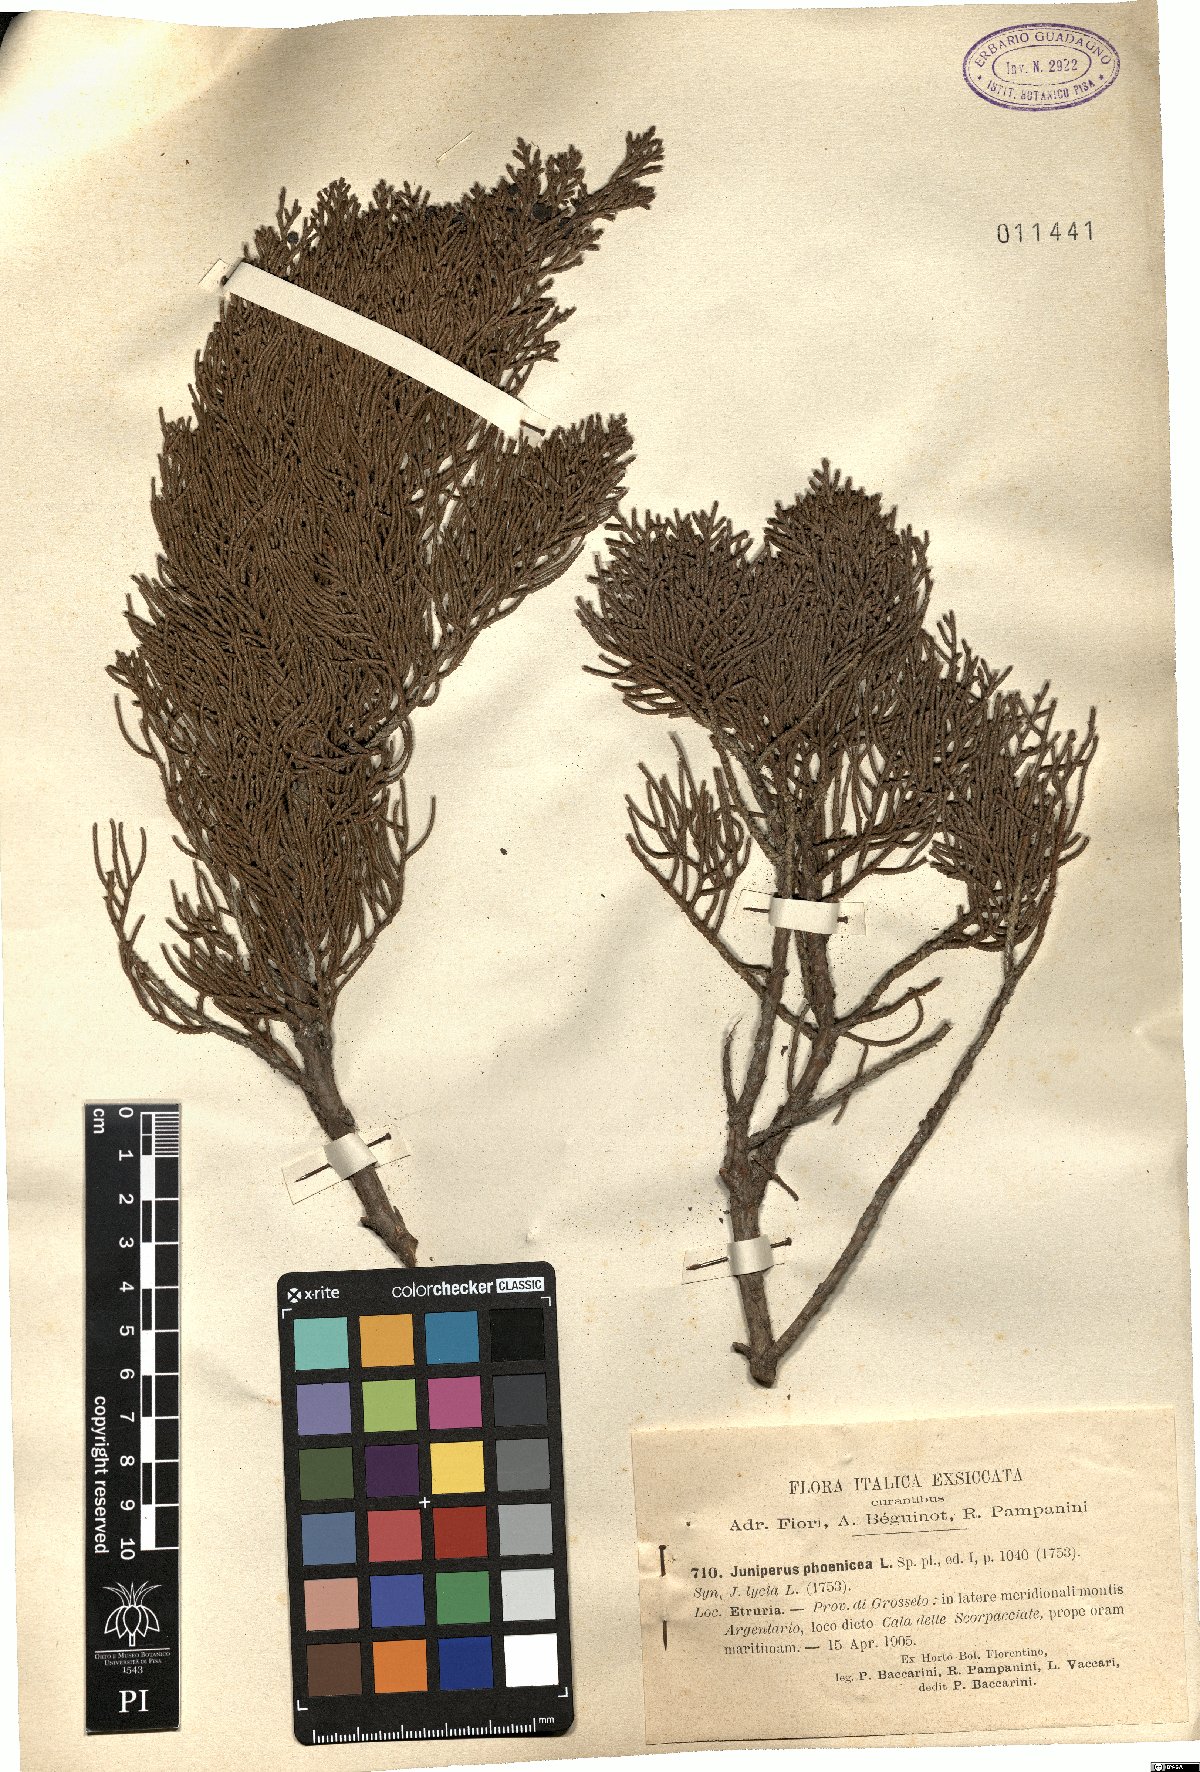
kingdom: Plantae
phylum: Tracheophyta
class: Pinopsida
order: Pinales
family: Cupressaceae
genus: Juniperus
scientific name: Juniperus phoenicea
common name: Phoenician juniper
